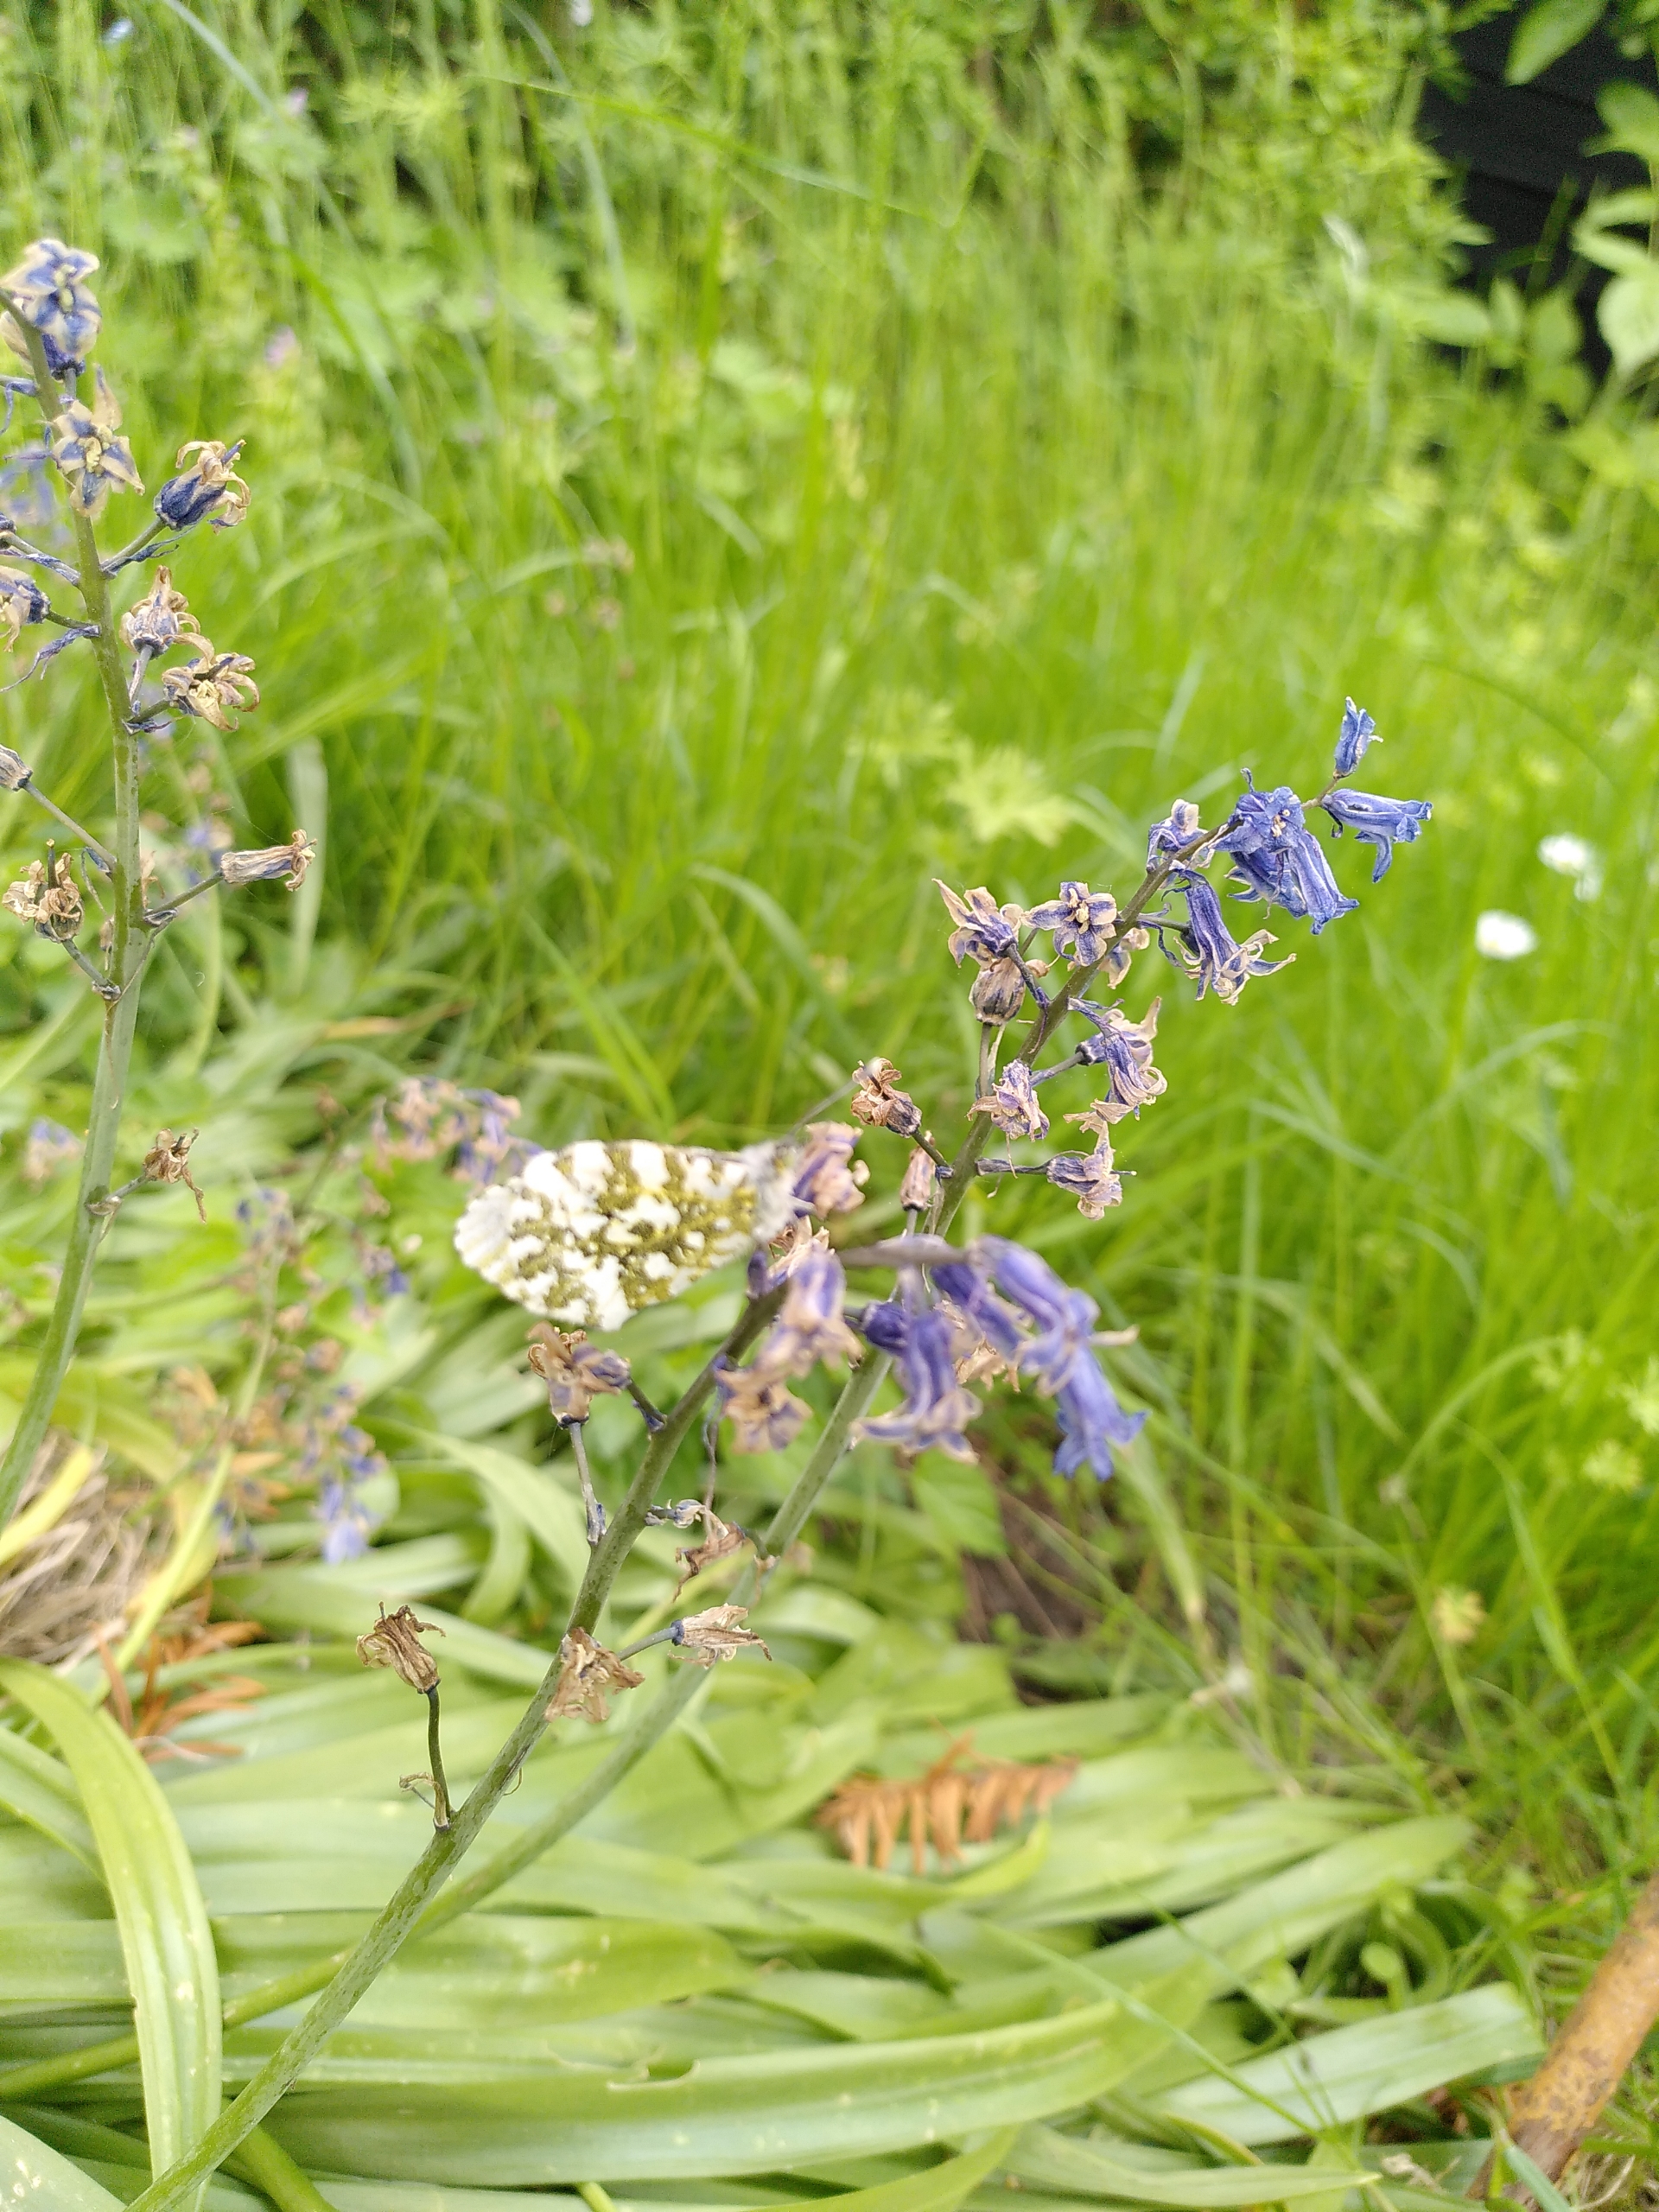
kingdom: Animalia
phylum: Arthropoda
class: Insecta
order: Lepidoptera
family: Pieridae
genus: Anthocharis
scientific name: Anthocharis cardamines
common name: Aurora
